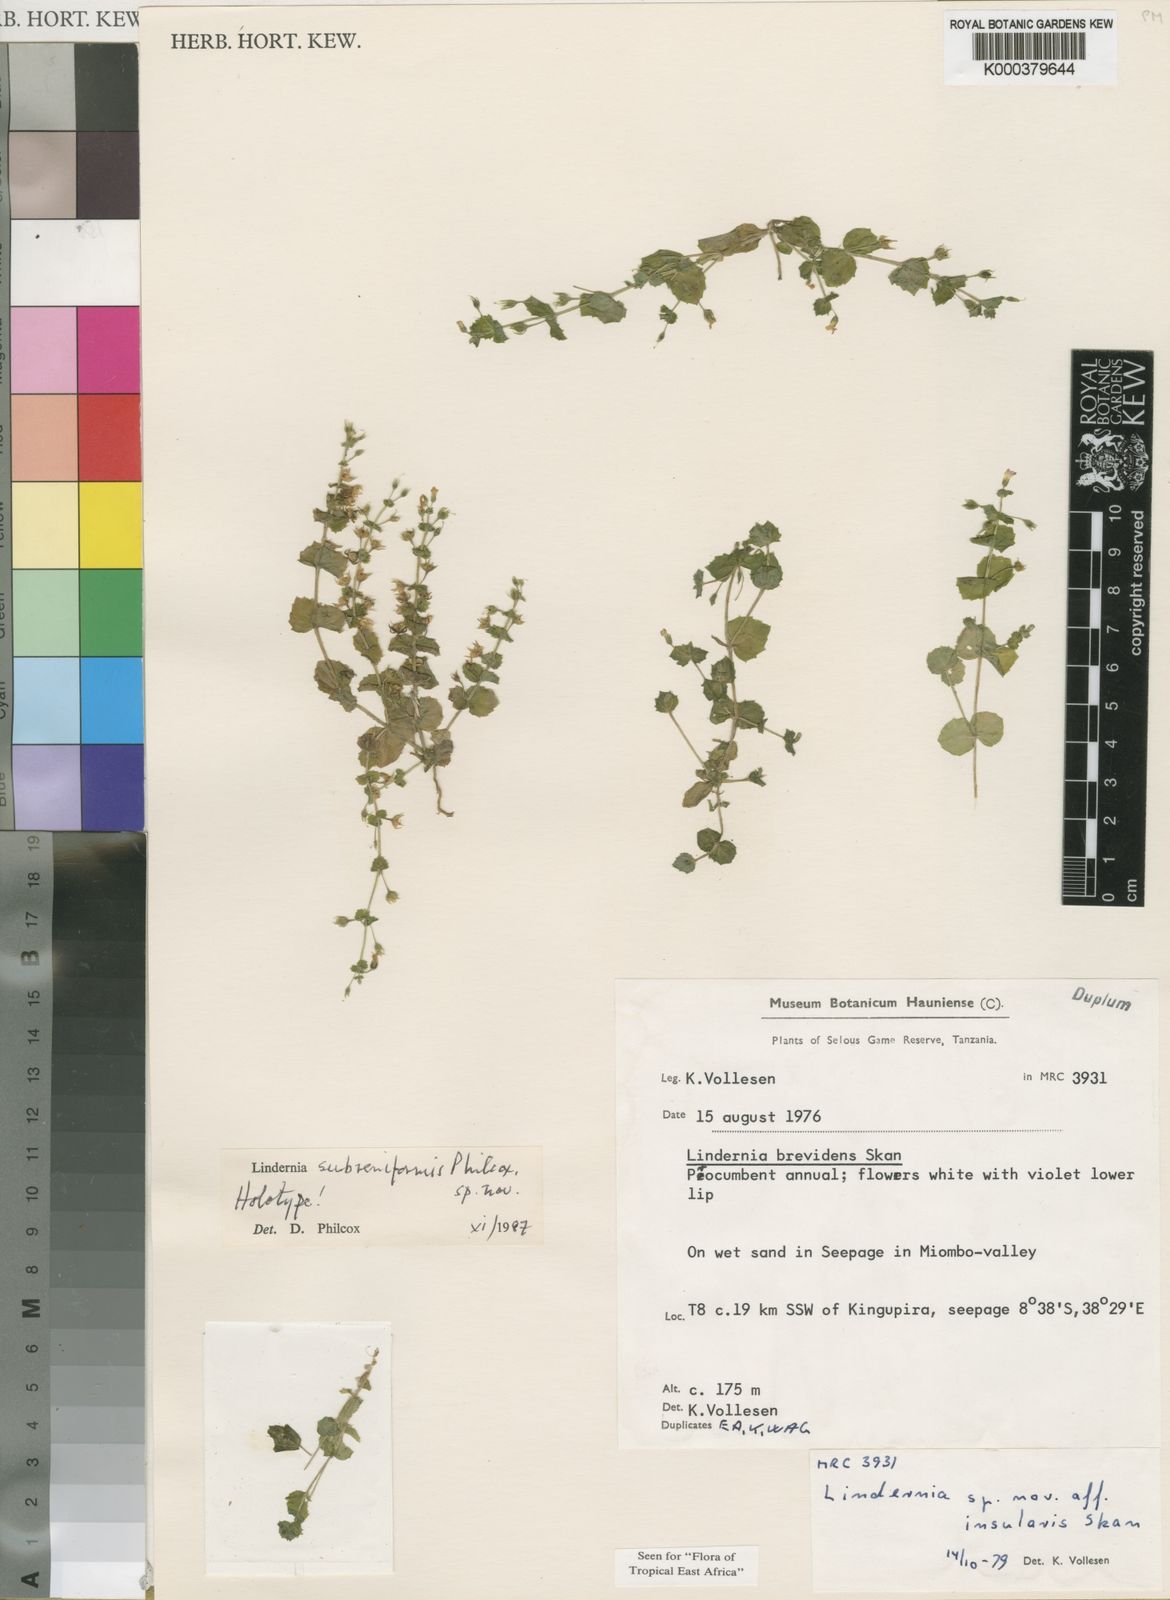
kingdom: Plantae
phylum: Tracheophyta
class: Magnoliopsida
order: Lamiales
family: Linderniaceae
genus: Vandellia
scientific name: Vandellia humilis
